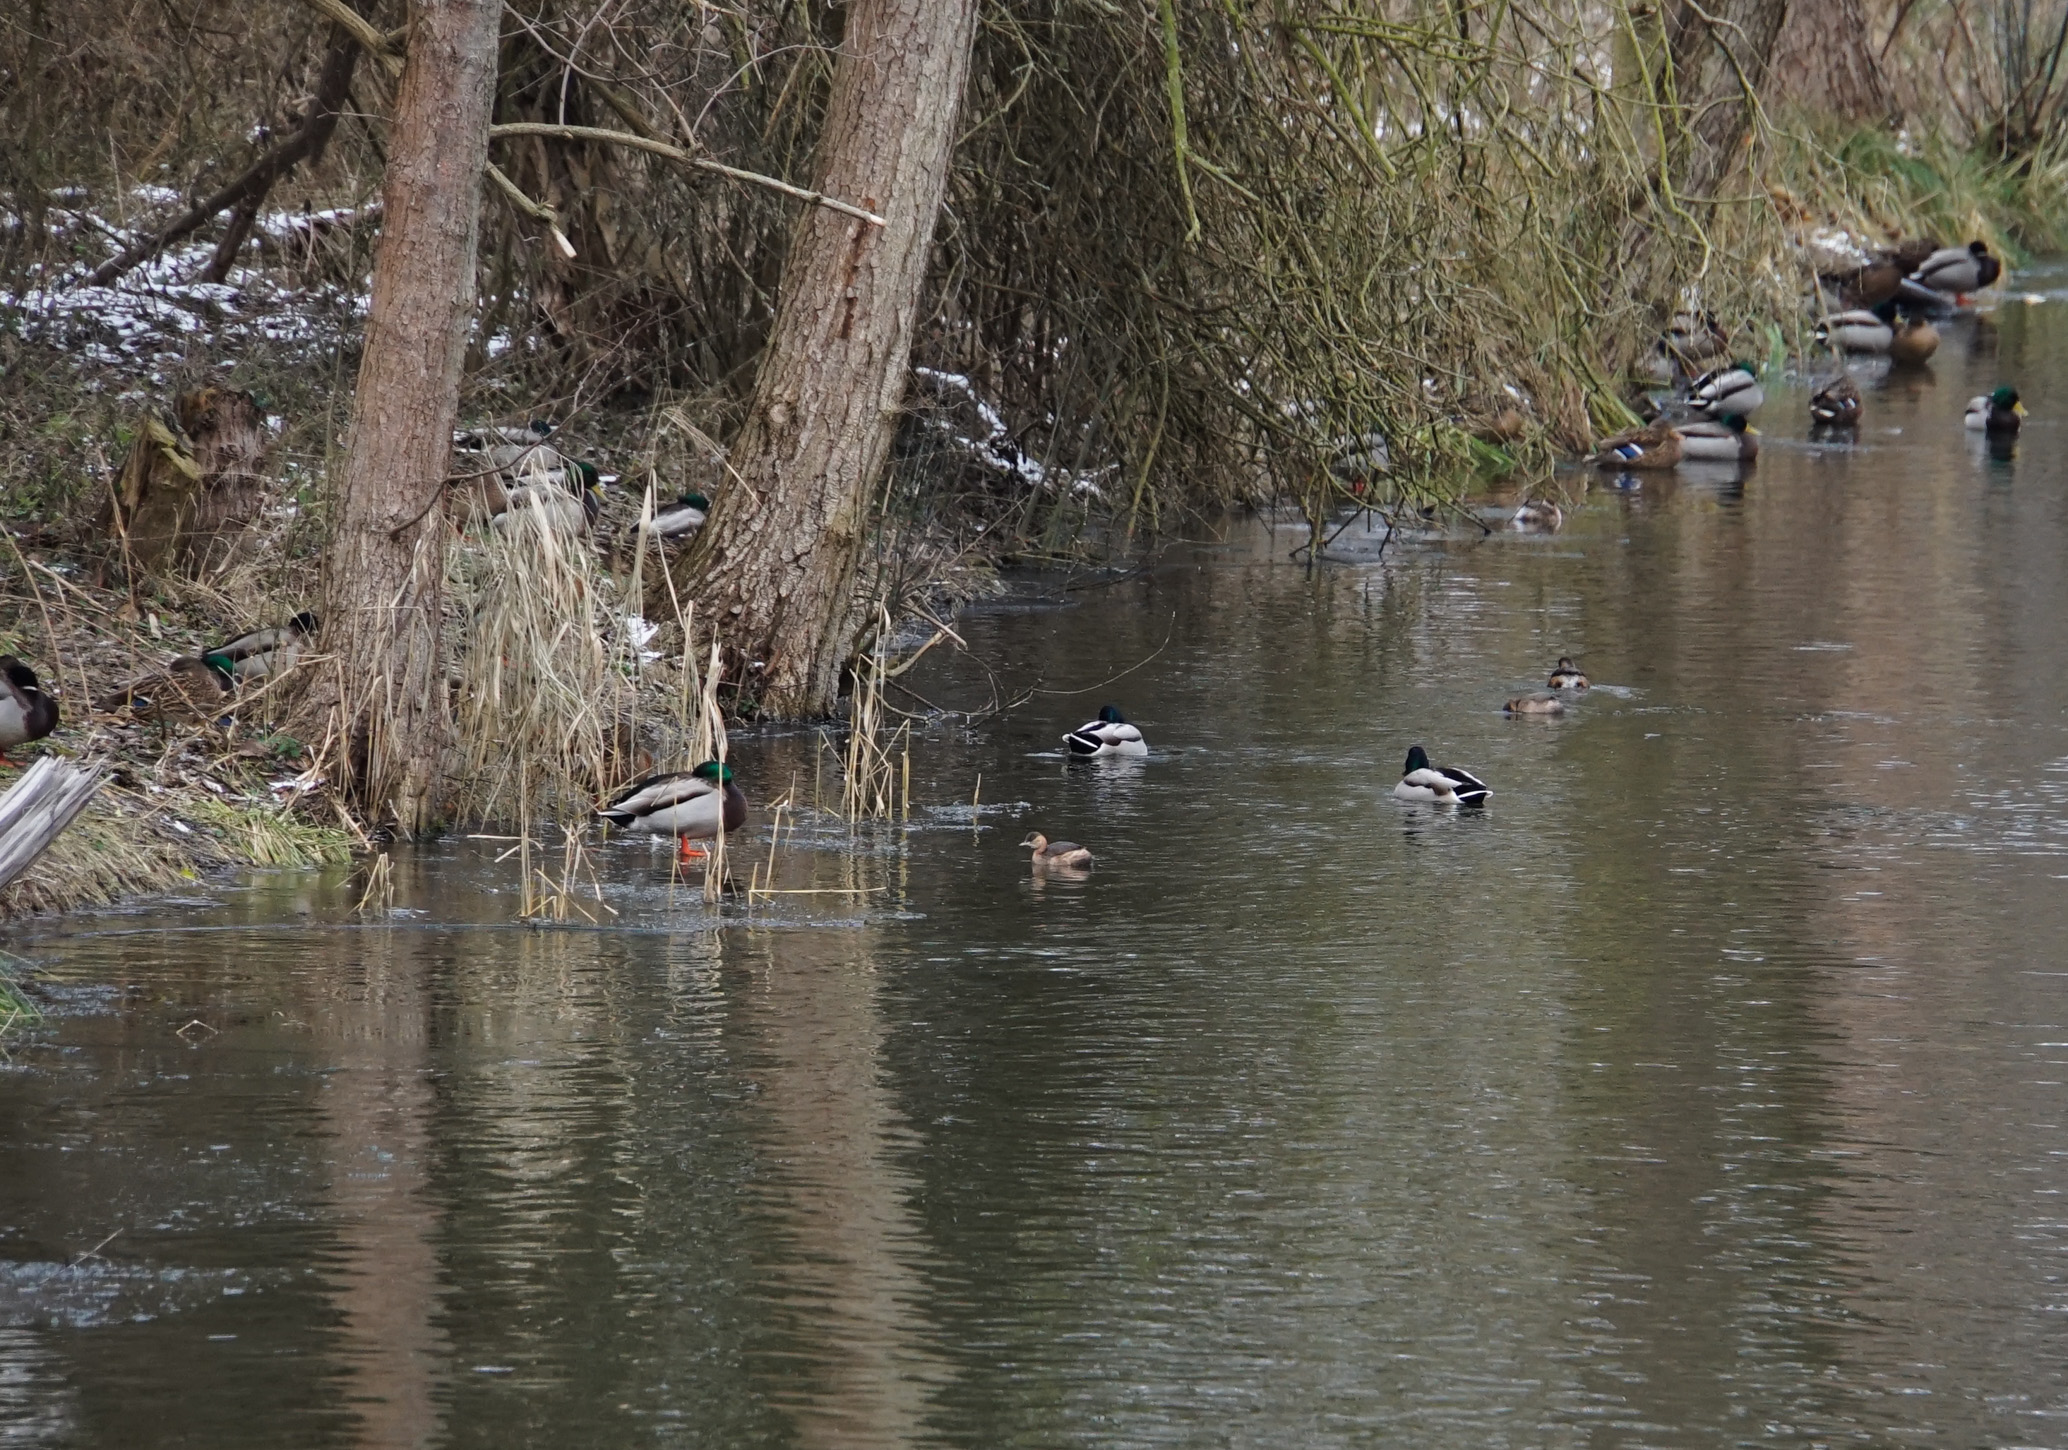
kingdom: Animalia
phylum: Chordata
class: Aves
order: Podicipediformes
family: Podicipedidae
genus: Tachybaptus
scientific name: Tachybaptus ruficollis
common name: Little grebe
